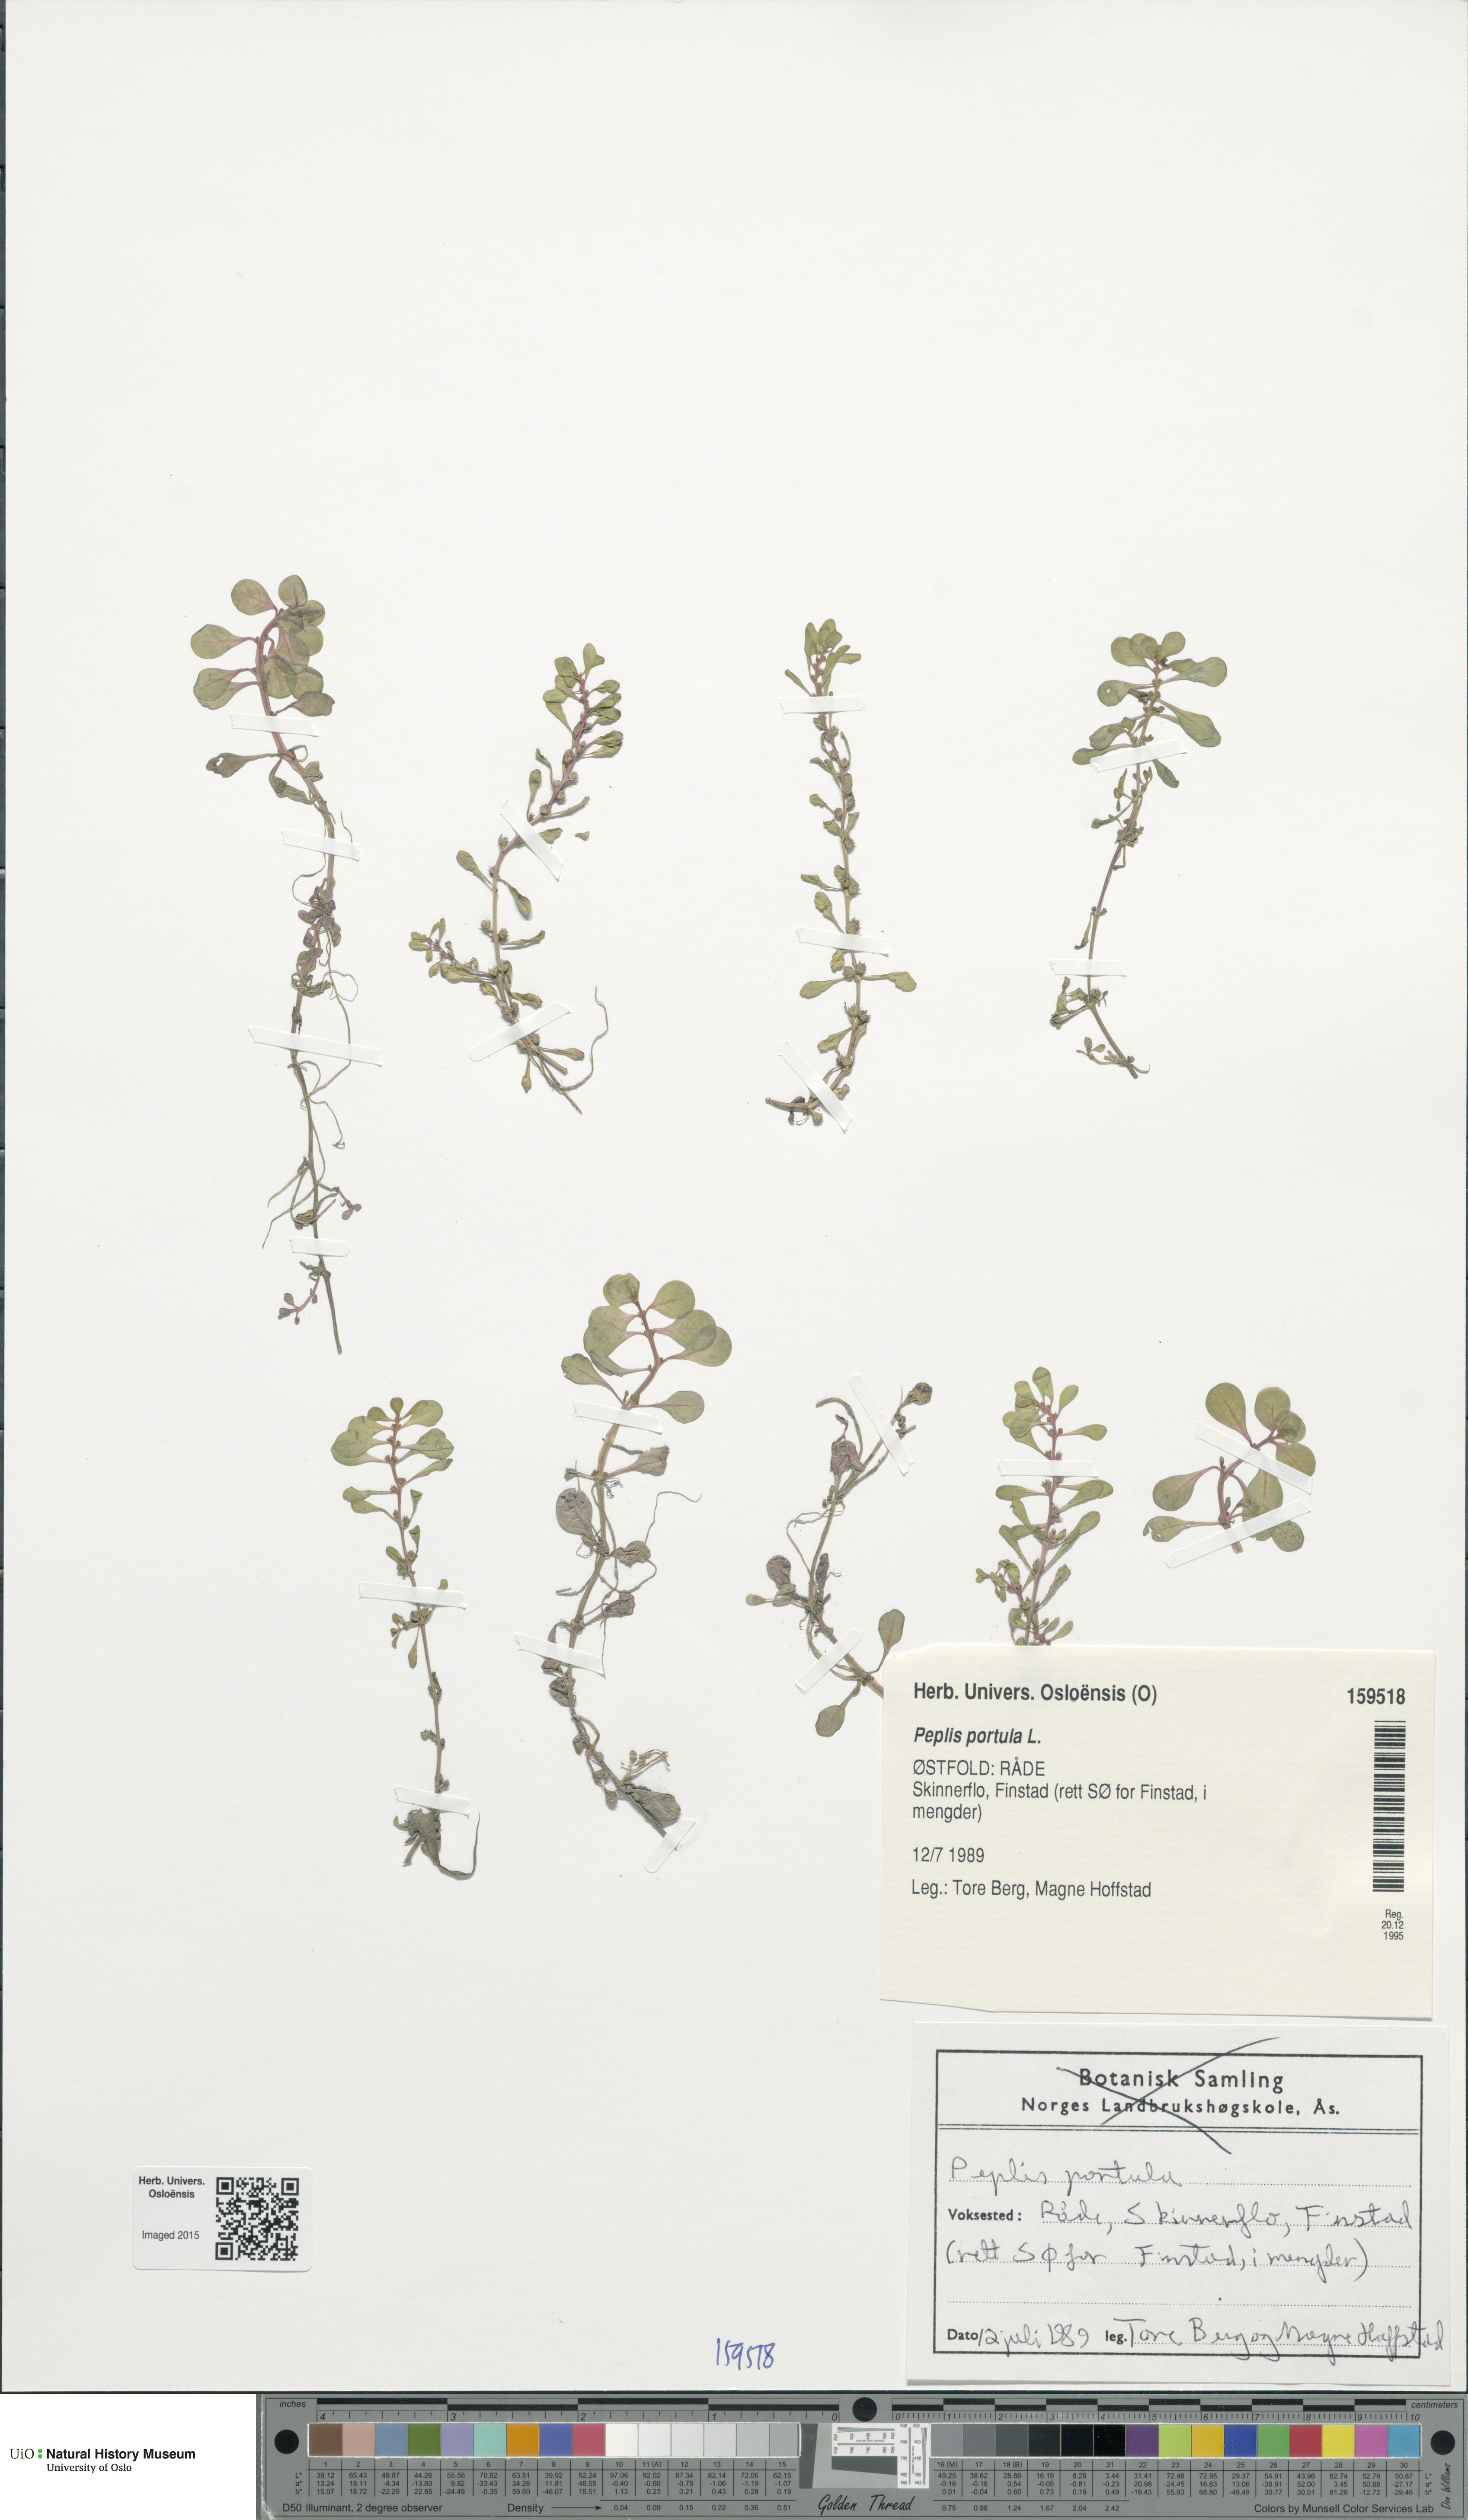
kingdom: Plantae
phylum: Tracheophyta
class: Magnoliopsida
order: Myrtales
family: Lythraceae
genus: Lythrum
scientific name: Lythrum portula
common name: Water purslane
